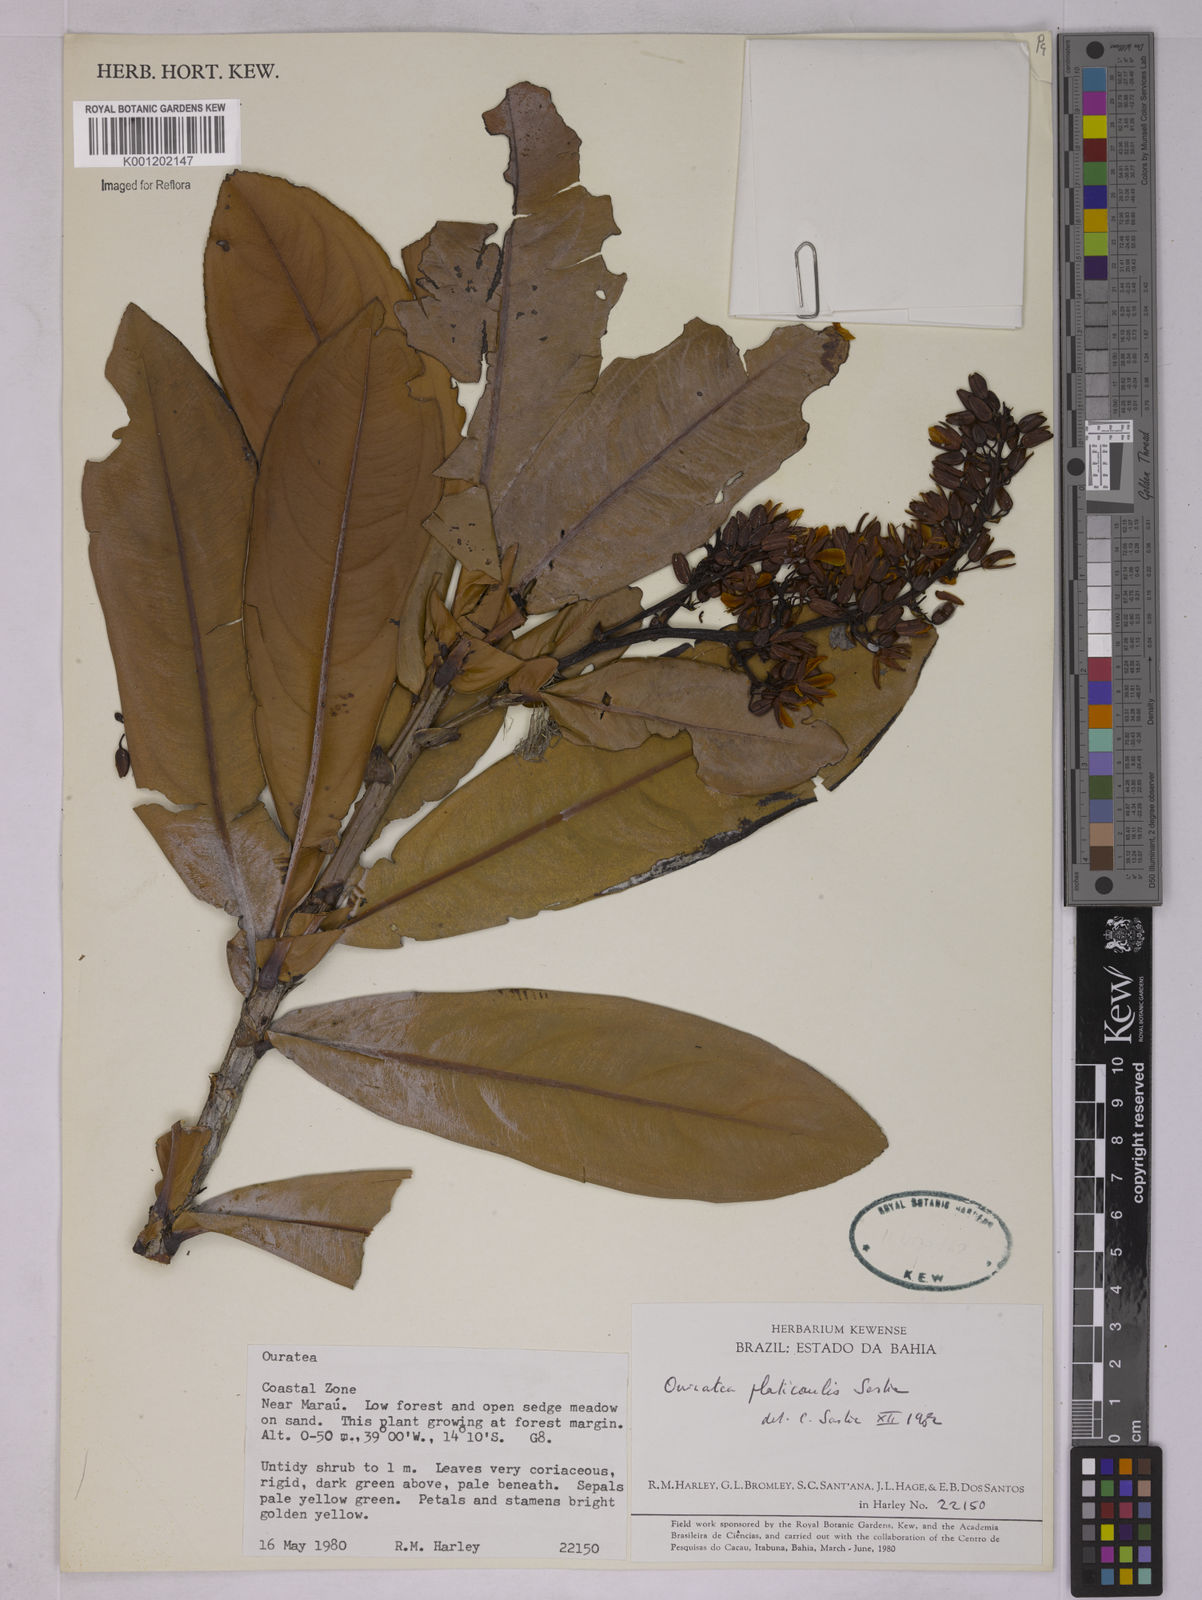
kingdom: Plantae
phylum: Tracheophyta
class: Magnoliopsida
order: Malpighiales
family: Ochnaceae
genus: Ouratea
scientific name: Ouratea platicaulis
